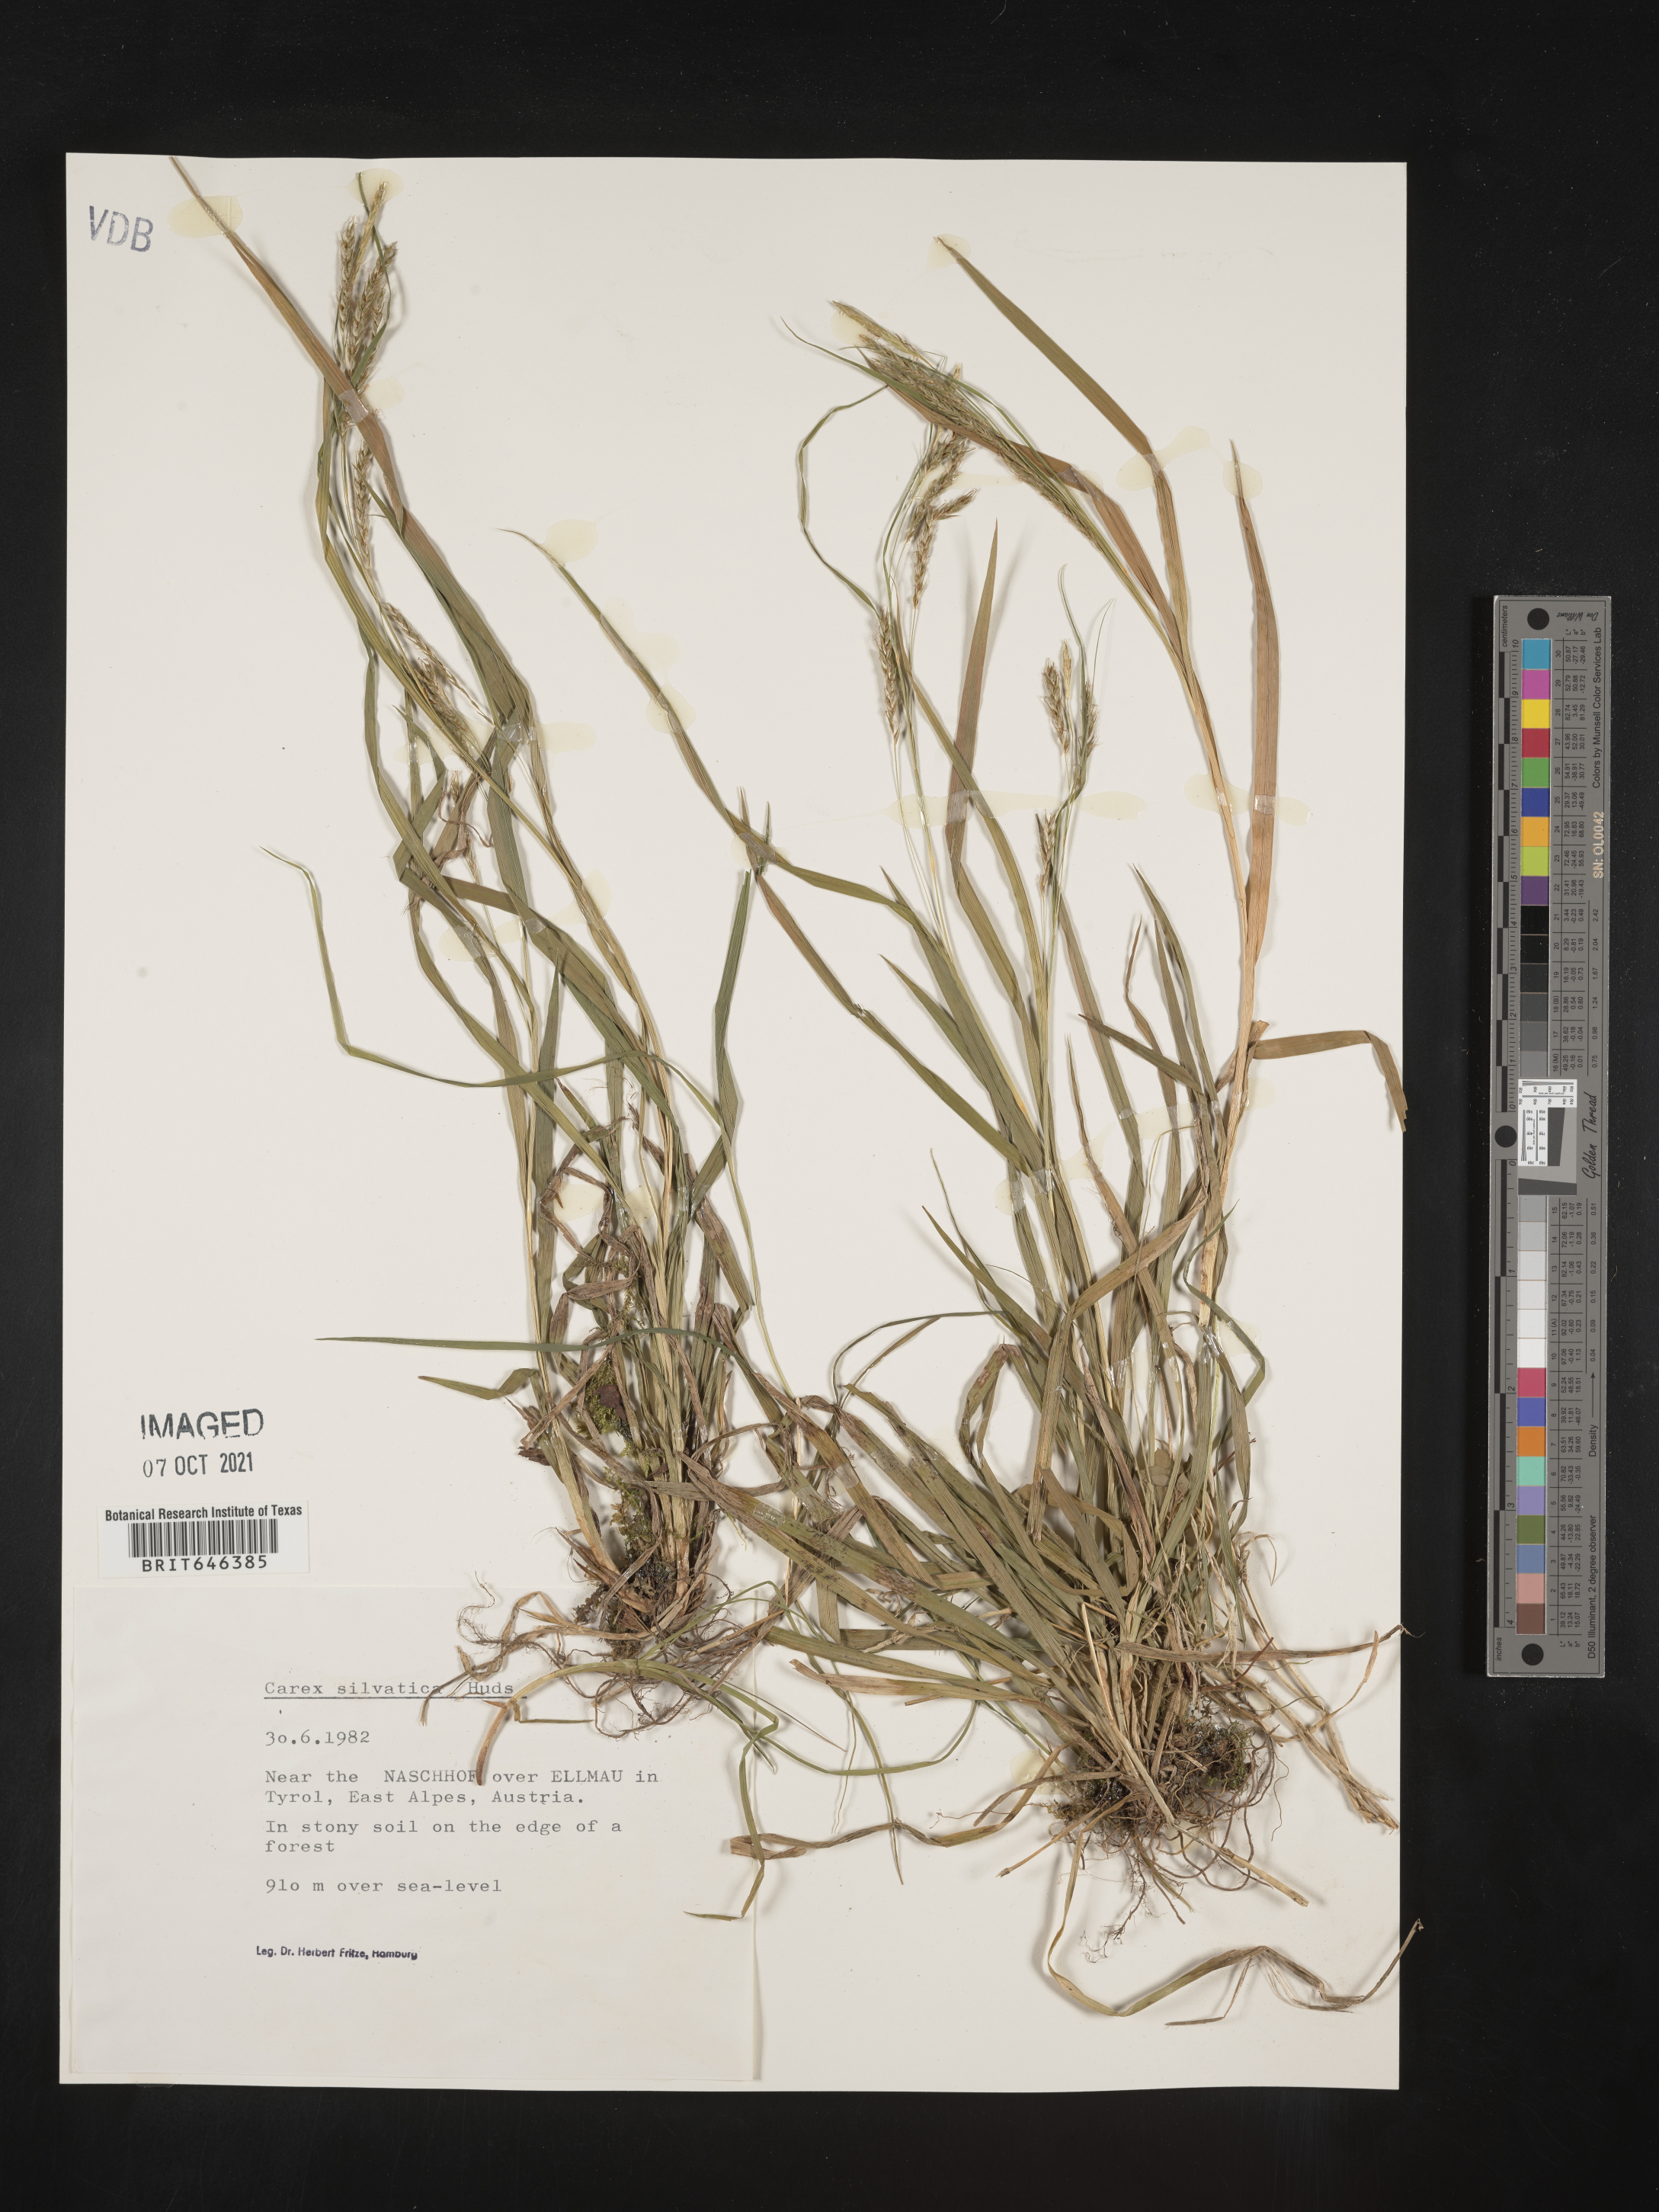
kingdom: Plantae
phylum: Tracheophyta
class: Liliopsida
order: Poales
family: Cyperaceae
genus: Carex
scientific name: Carex sylvatica
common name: Wood-sedge
